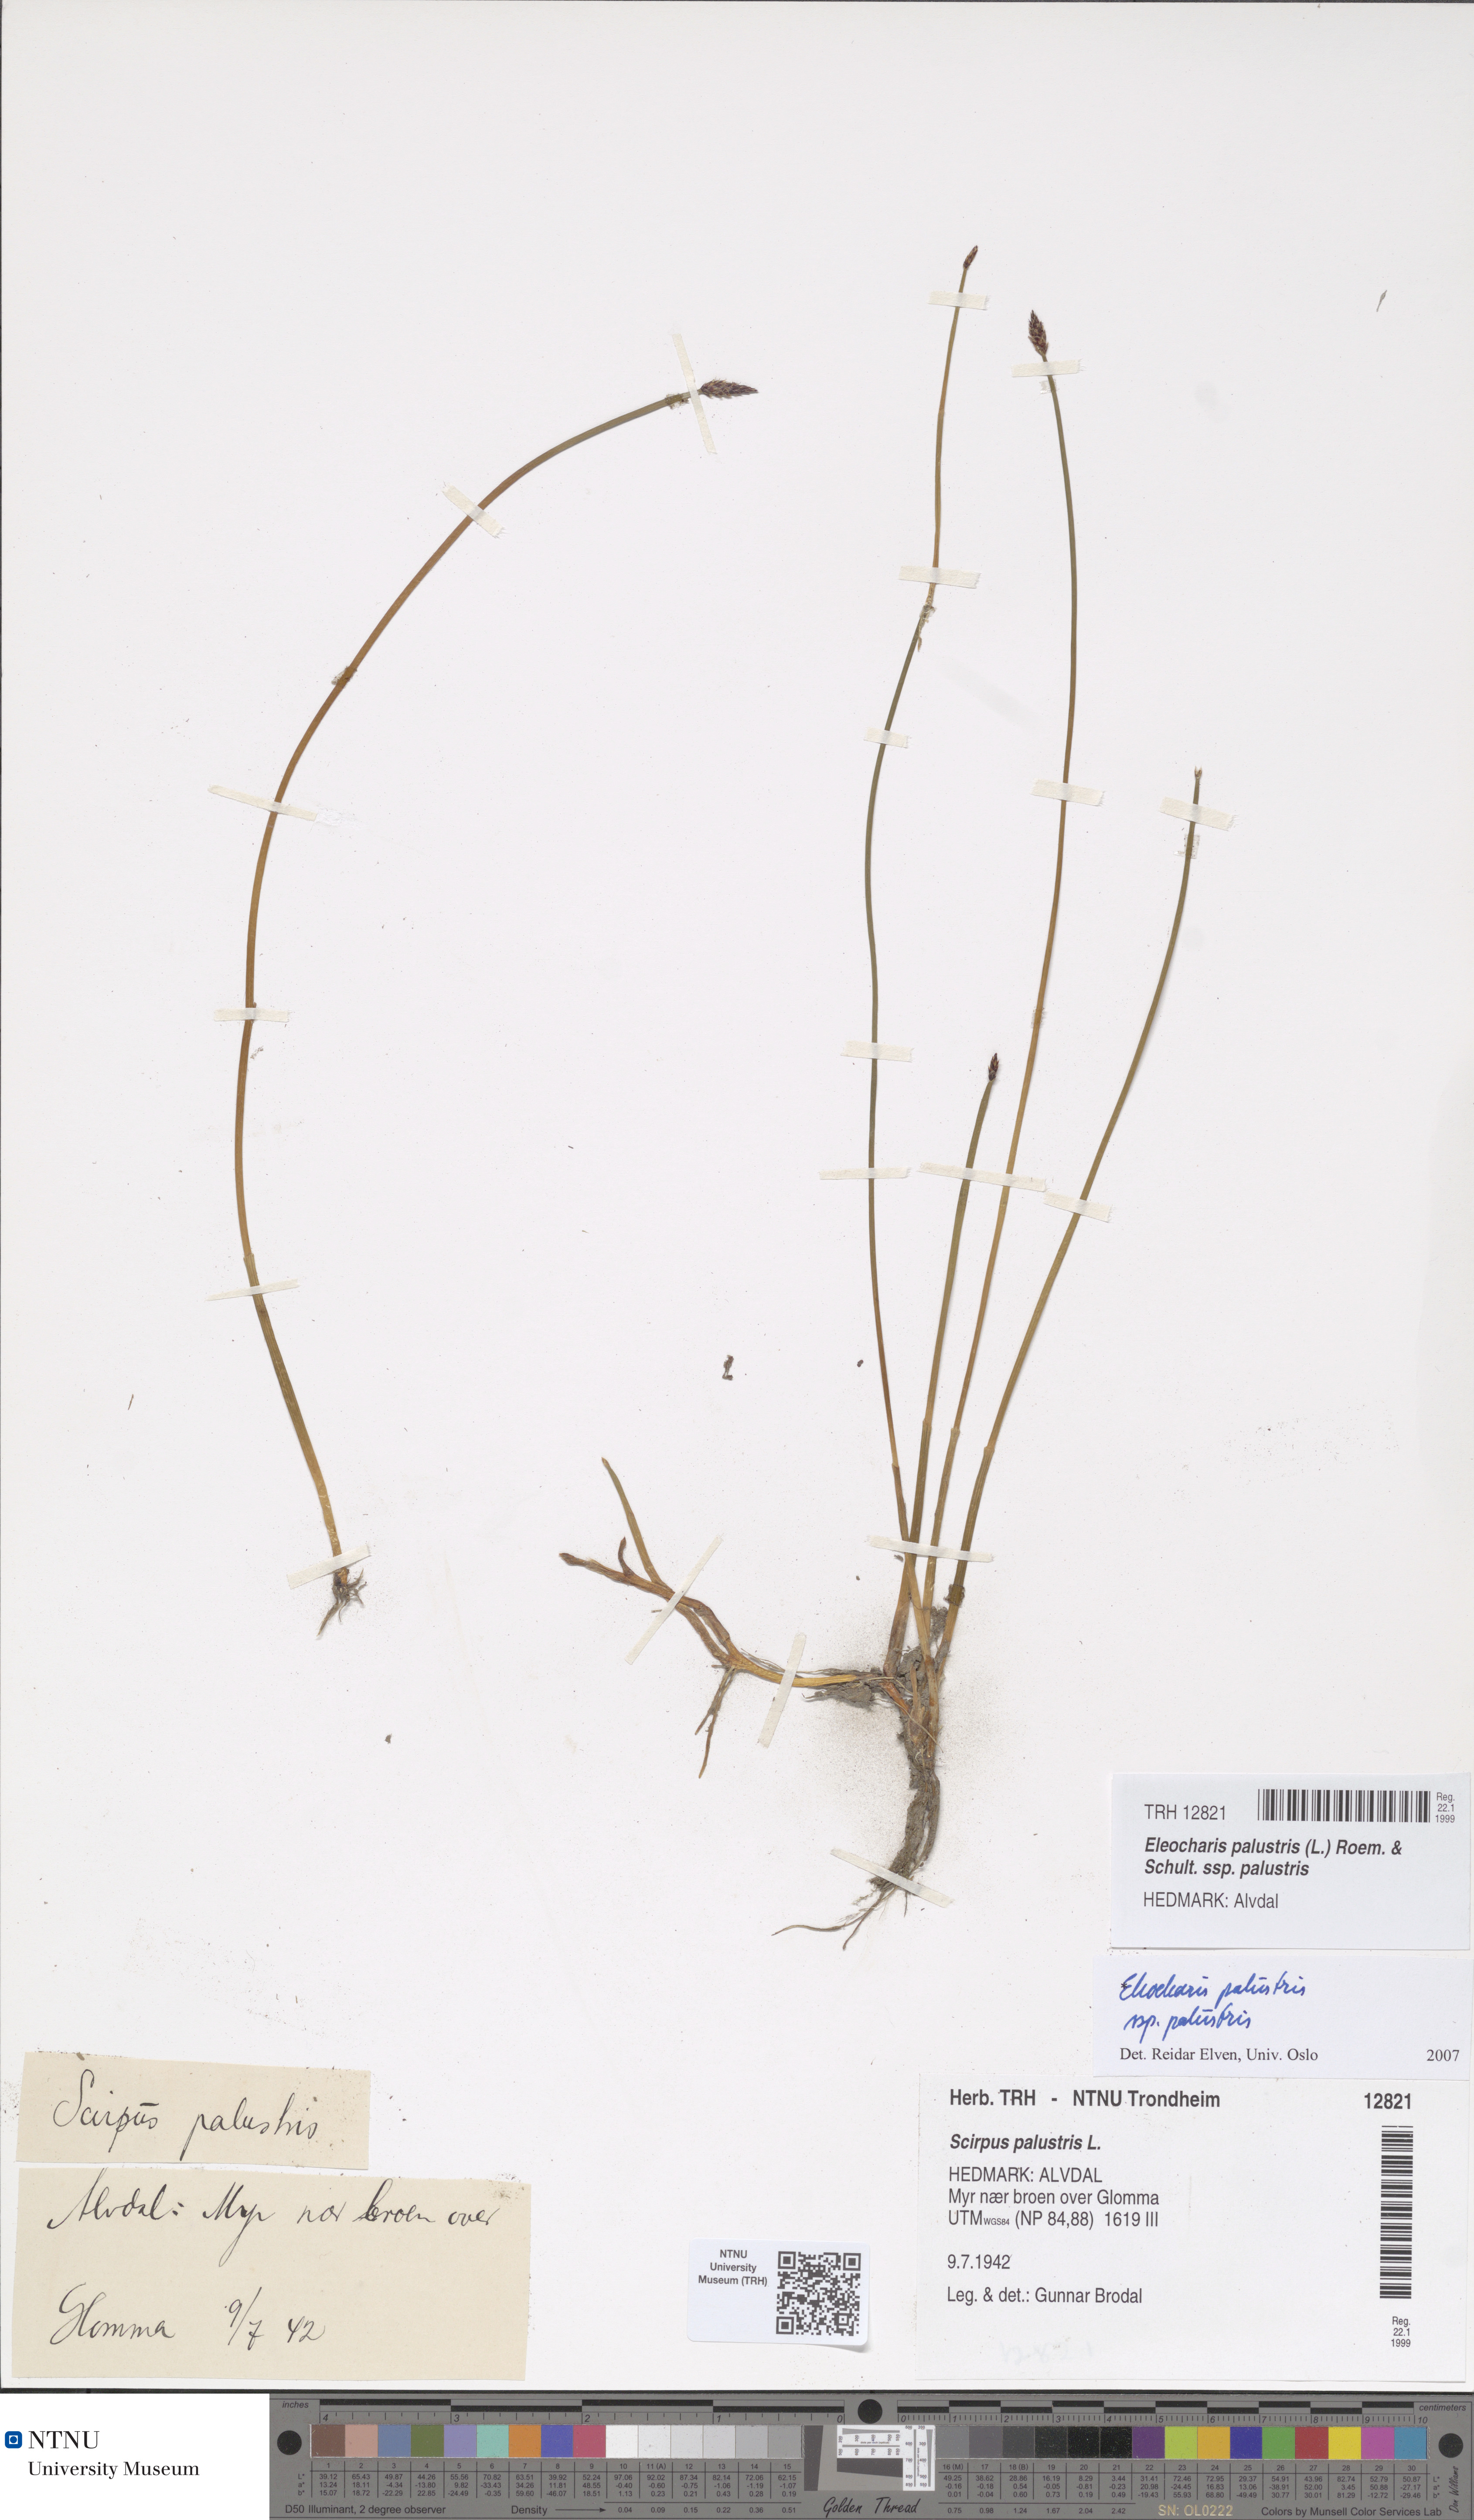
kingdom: Plantae
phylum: Tracheophyta
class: Liliopsida
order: Poales
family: Cyperaceae
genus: Eleocharis
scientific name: Eleocharis palustris
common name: Common spike-rush
